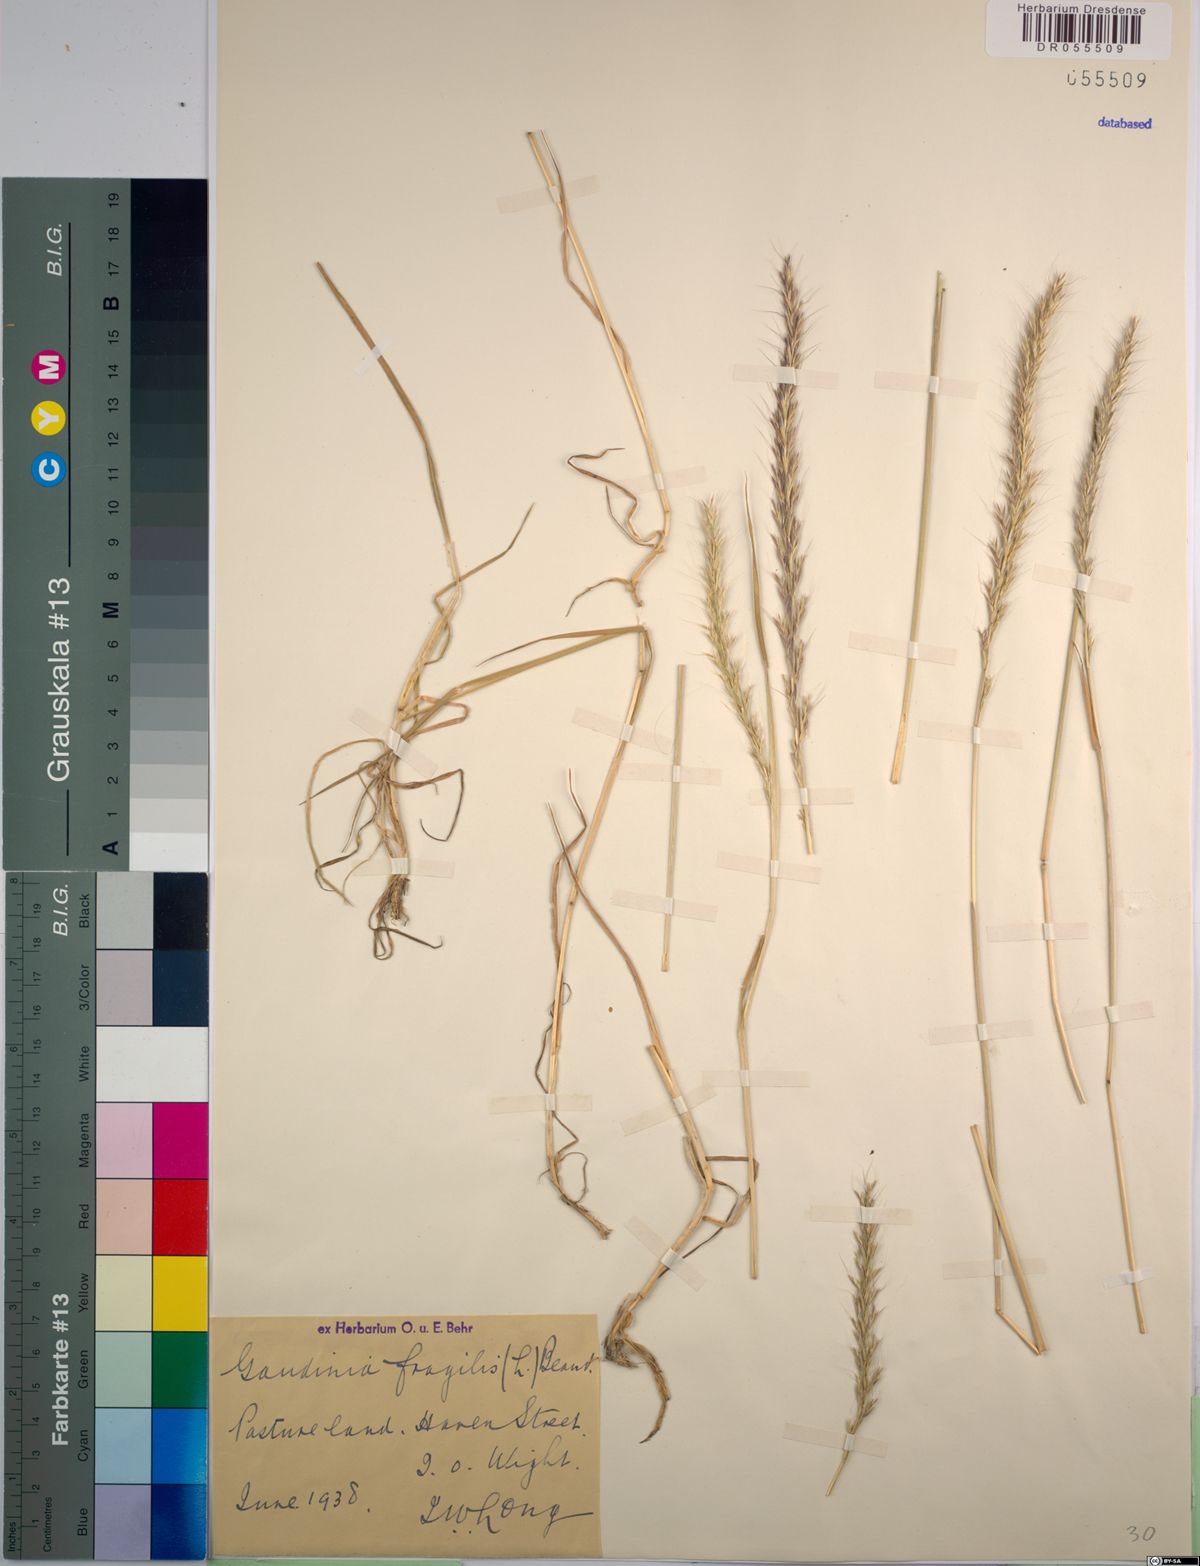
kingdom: Plantae
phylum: Tracheophyta
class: Liliopsida
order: Poales
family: Poaceae
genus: Gaudinia
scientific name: Gaudinia fragilis
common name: French oat-grass
